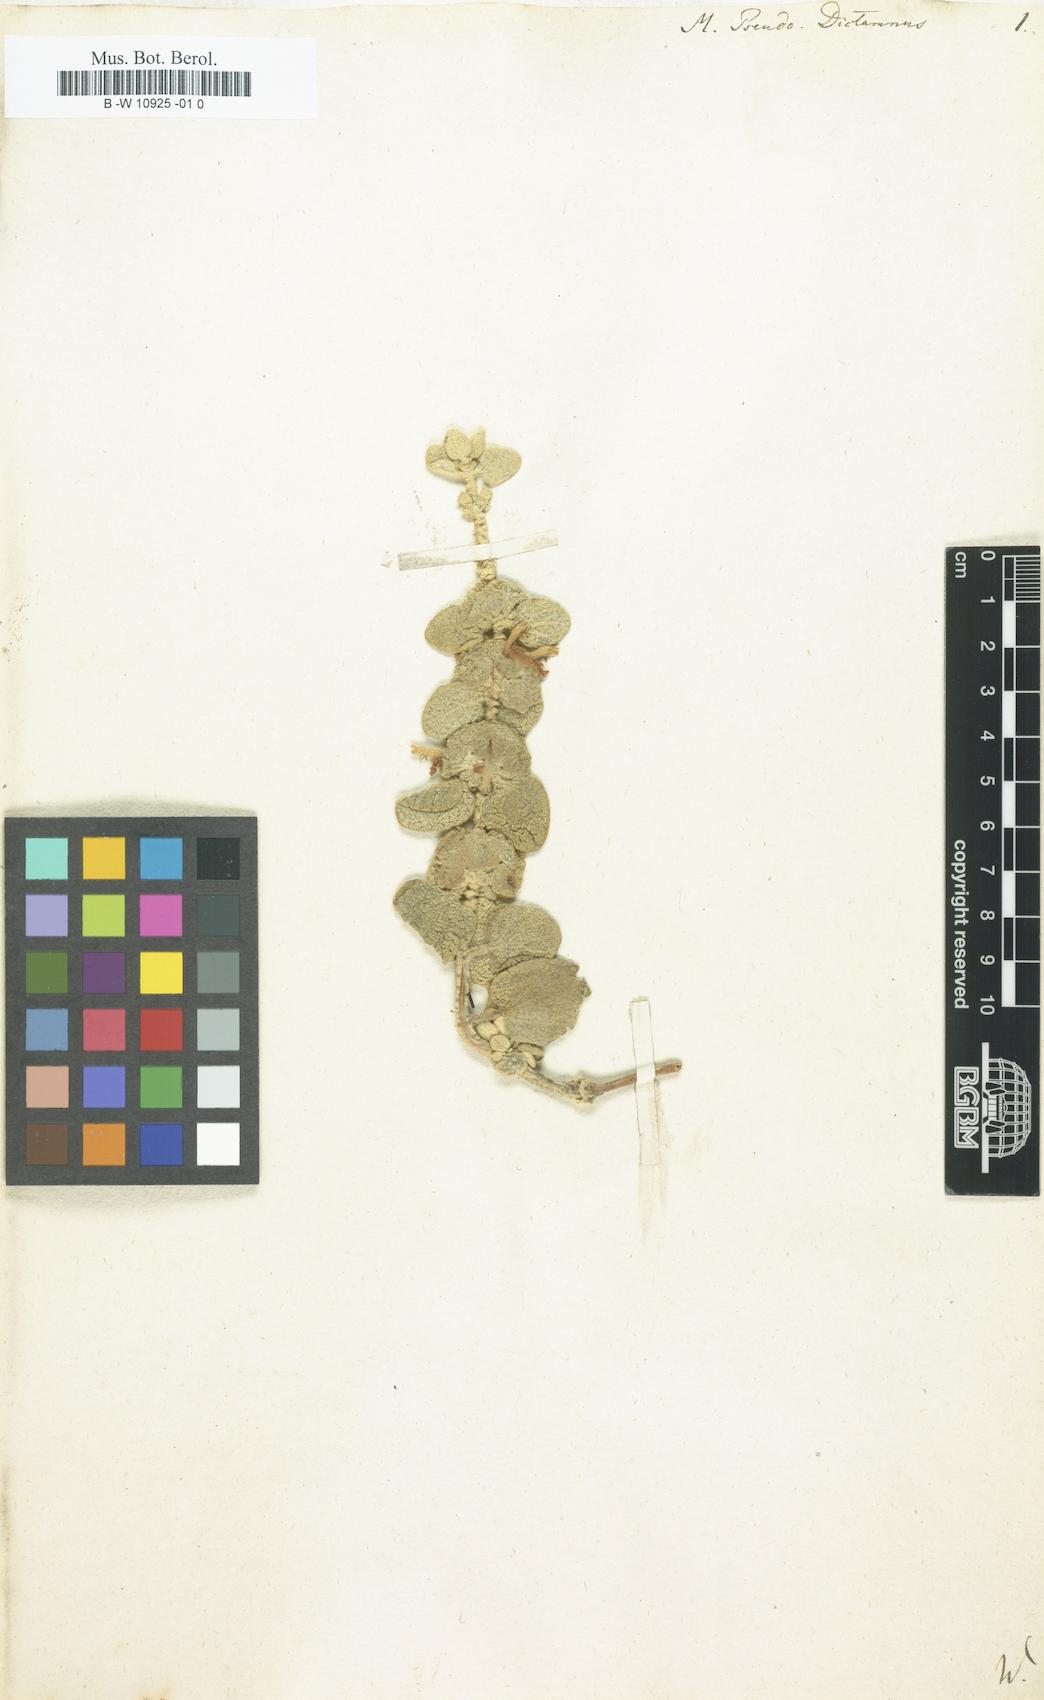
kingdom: Plantae
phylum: Tracheophyta
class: Magnoliopsida
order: Lamiales
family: Lamiaceae
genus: Marrubium
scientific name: Marrubium pseudodictamnus
